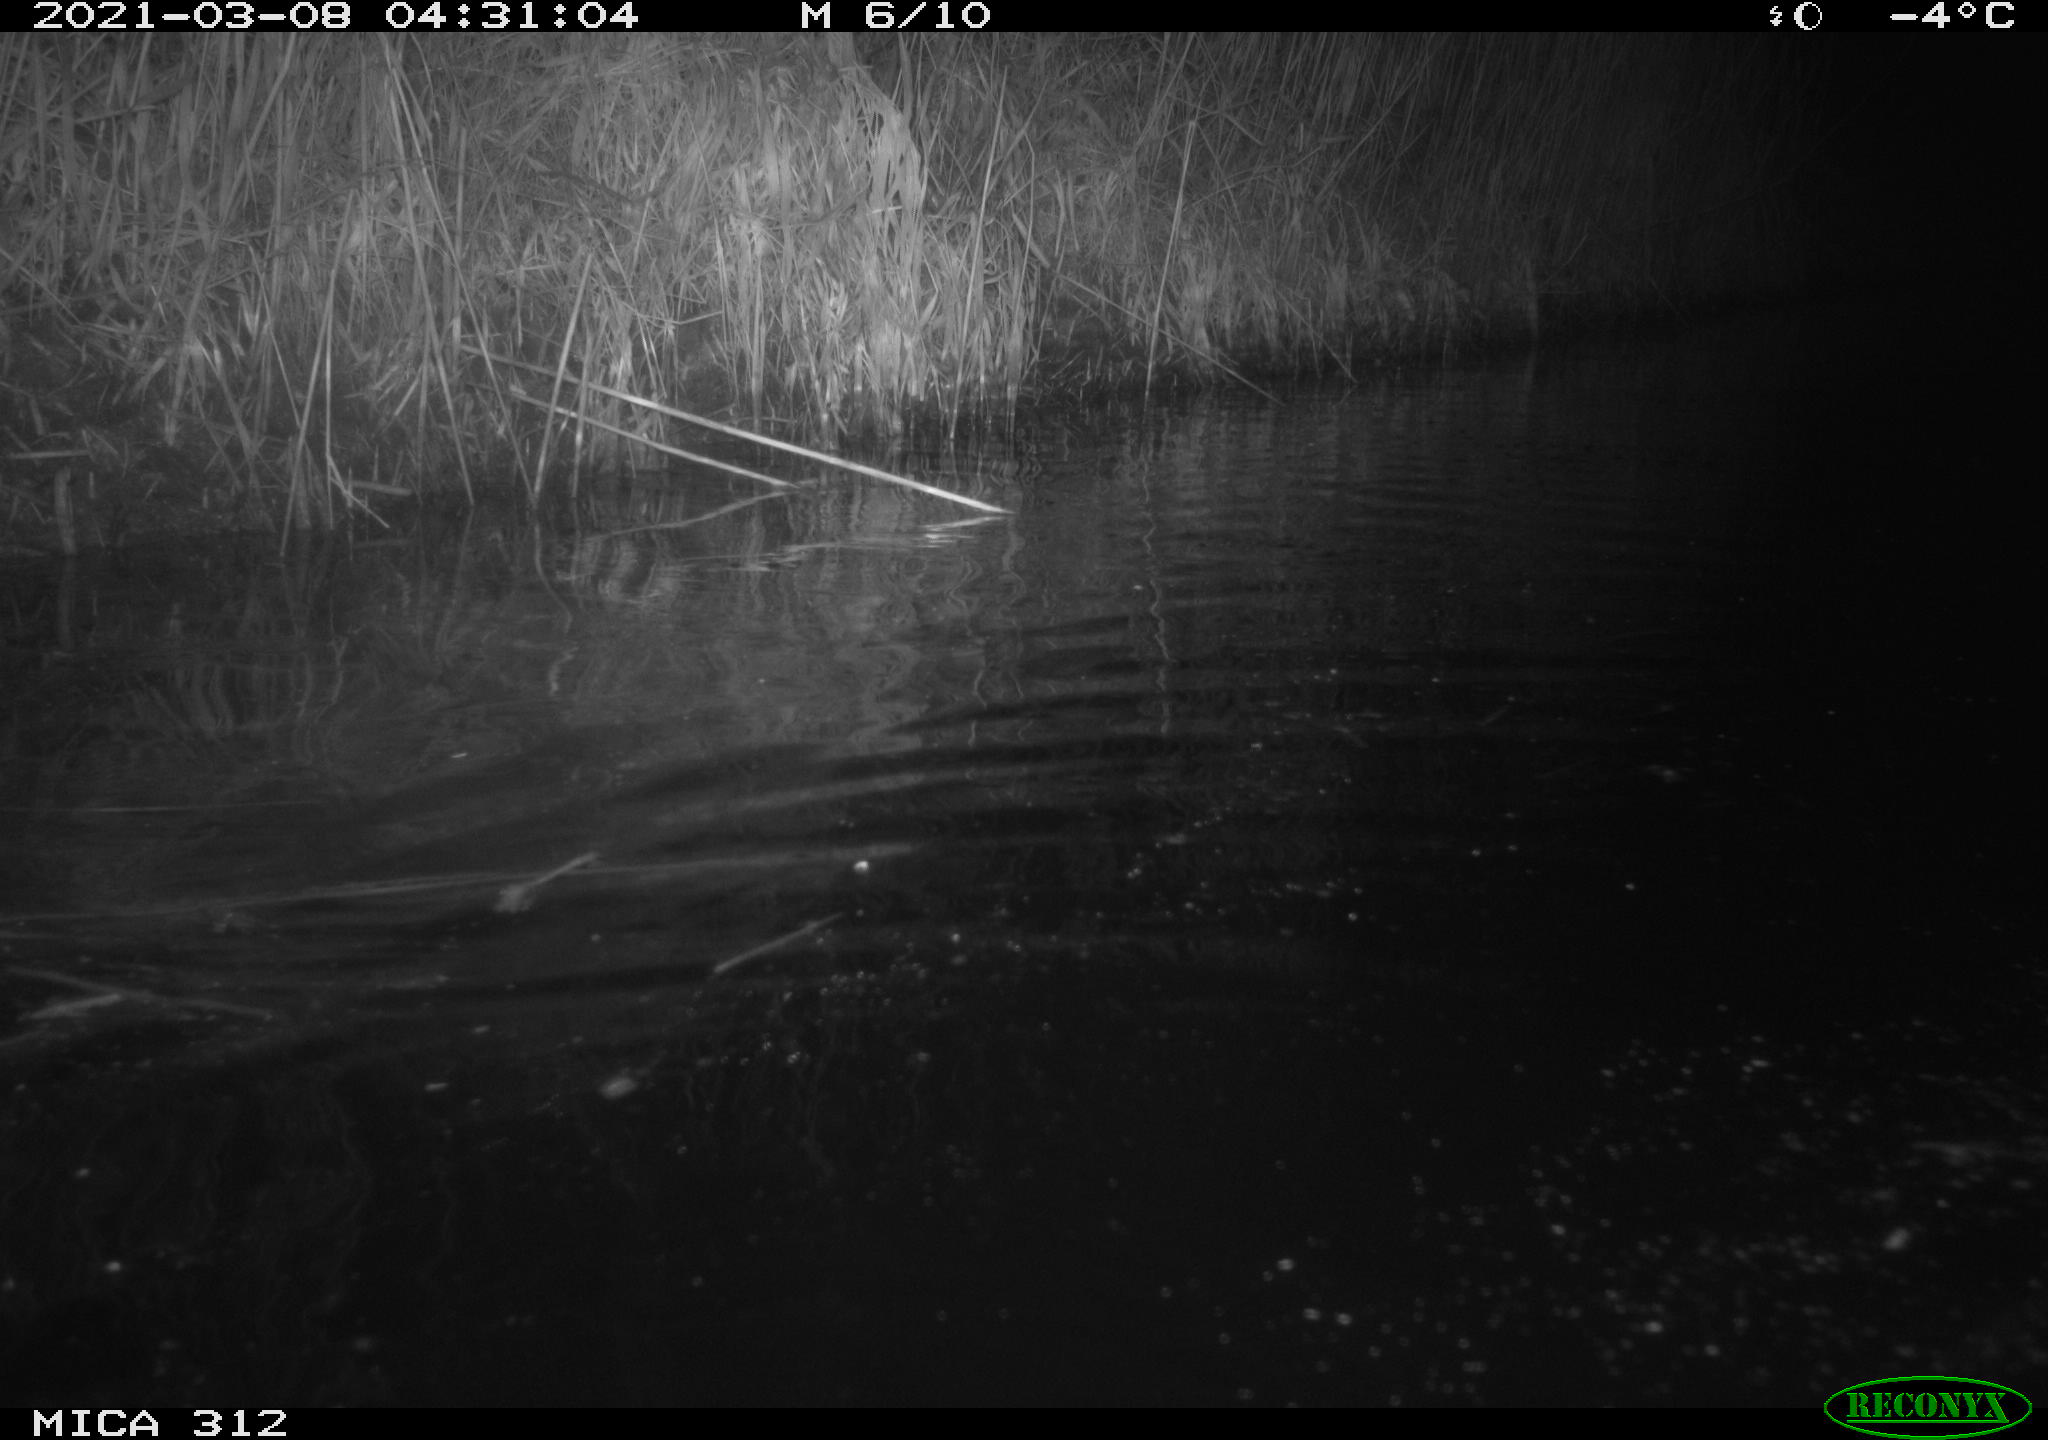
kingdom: Animalia
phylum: Chordata
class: Mammalia
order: Rodentia
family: Cricetidae
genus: Ondatra
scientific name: Ondatra zibethicus
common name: Muskrat
